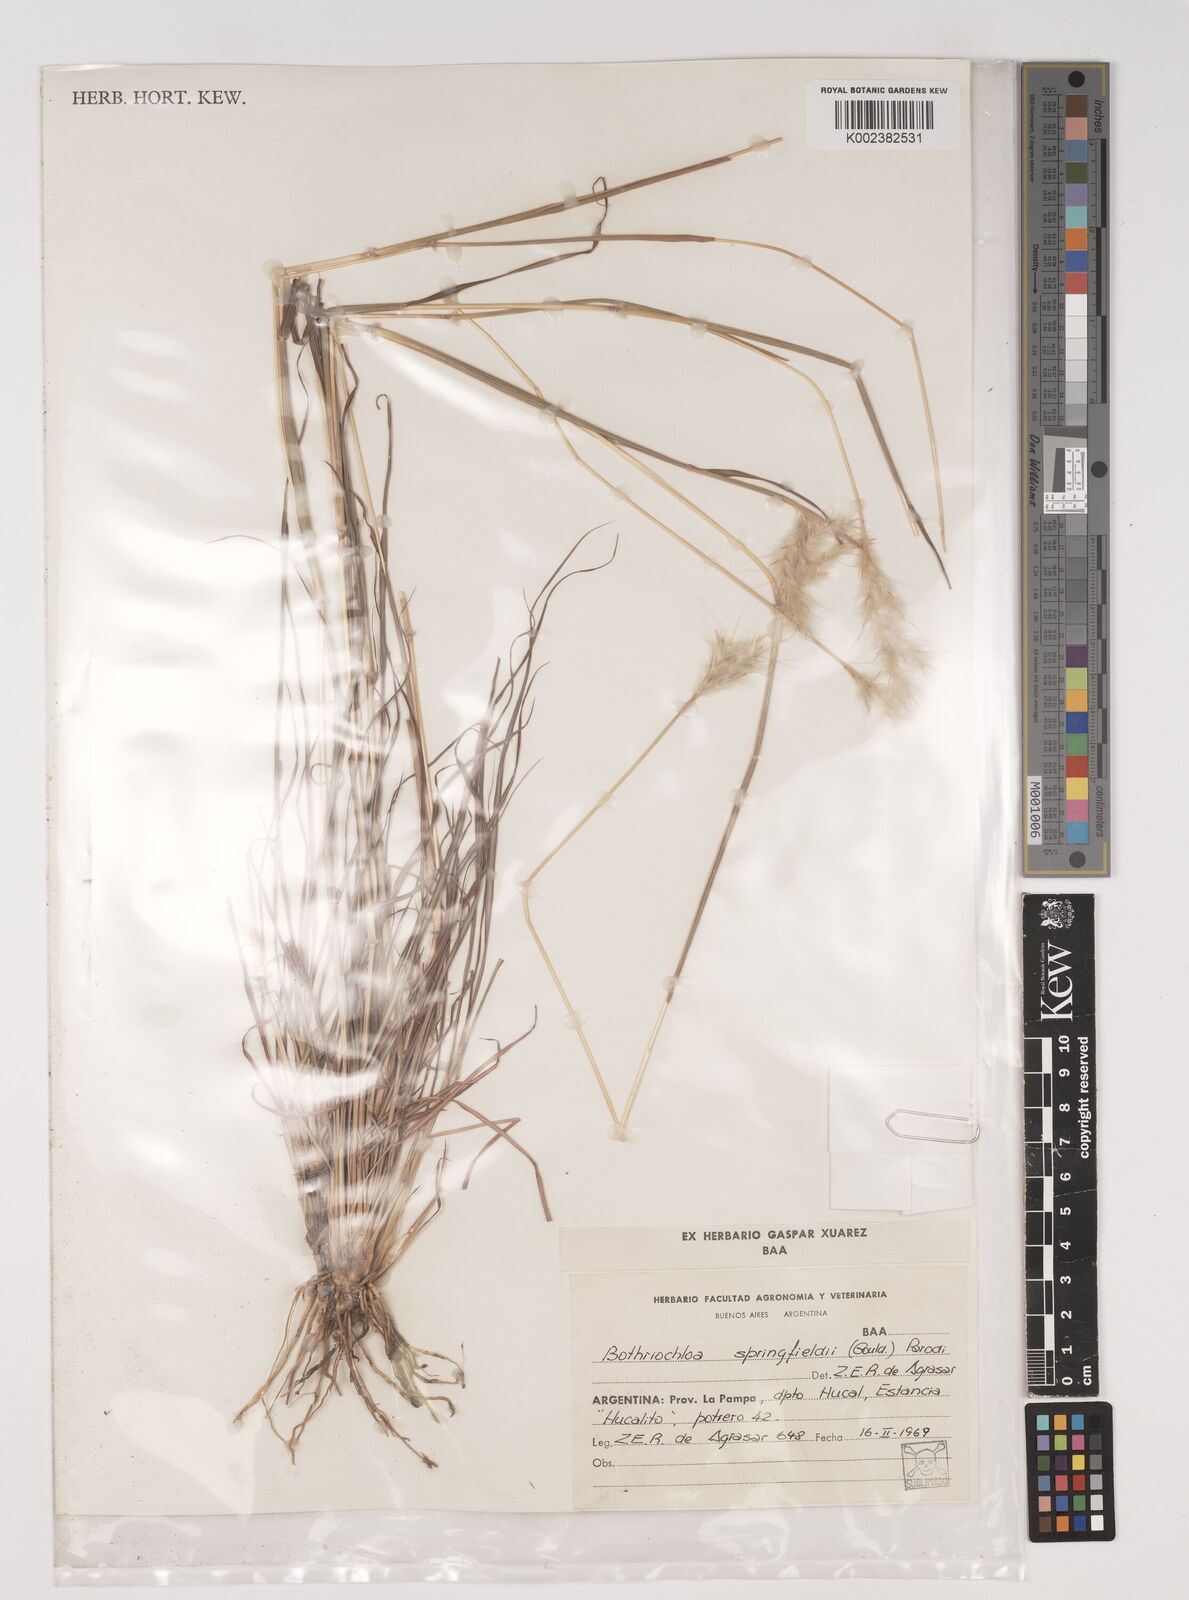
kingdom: Plantae
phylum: Tracheophyta
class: Liliopsida
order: Poales
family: Poaceae
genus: Bothriochloa
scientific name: Bothriochloa springfieldii
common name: Springfield bluestem
